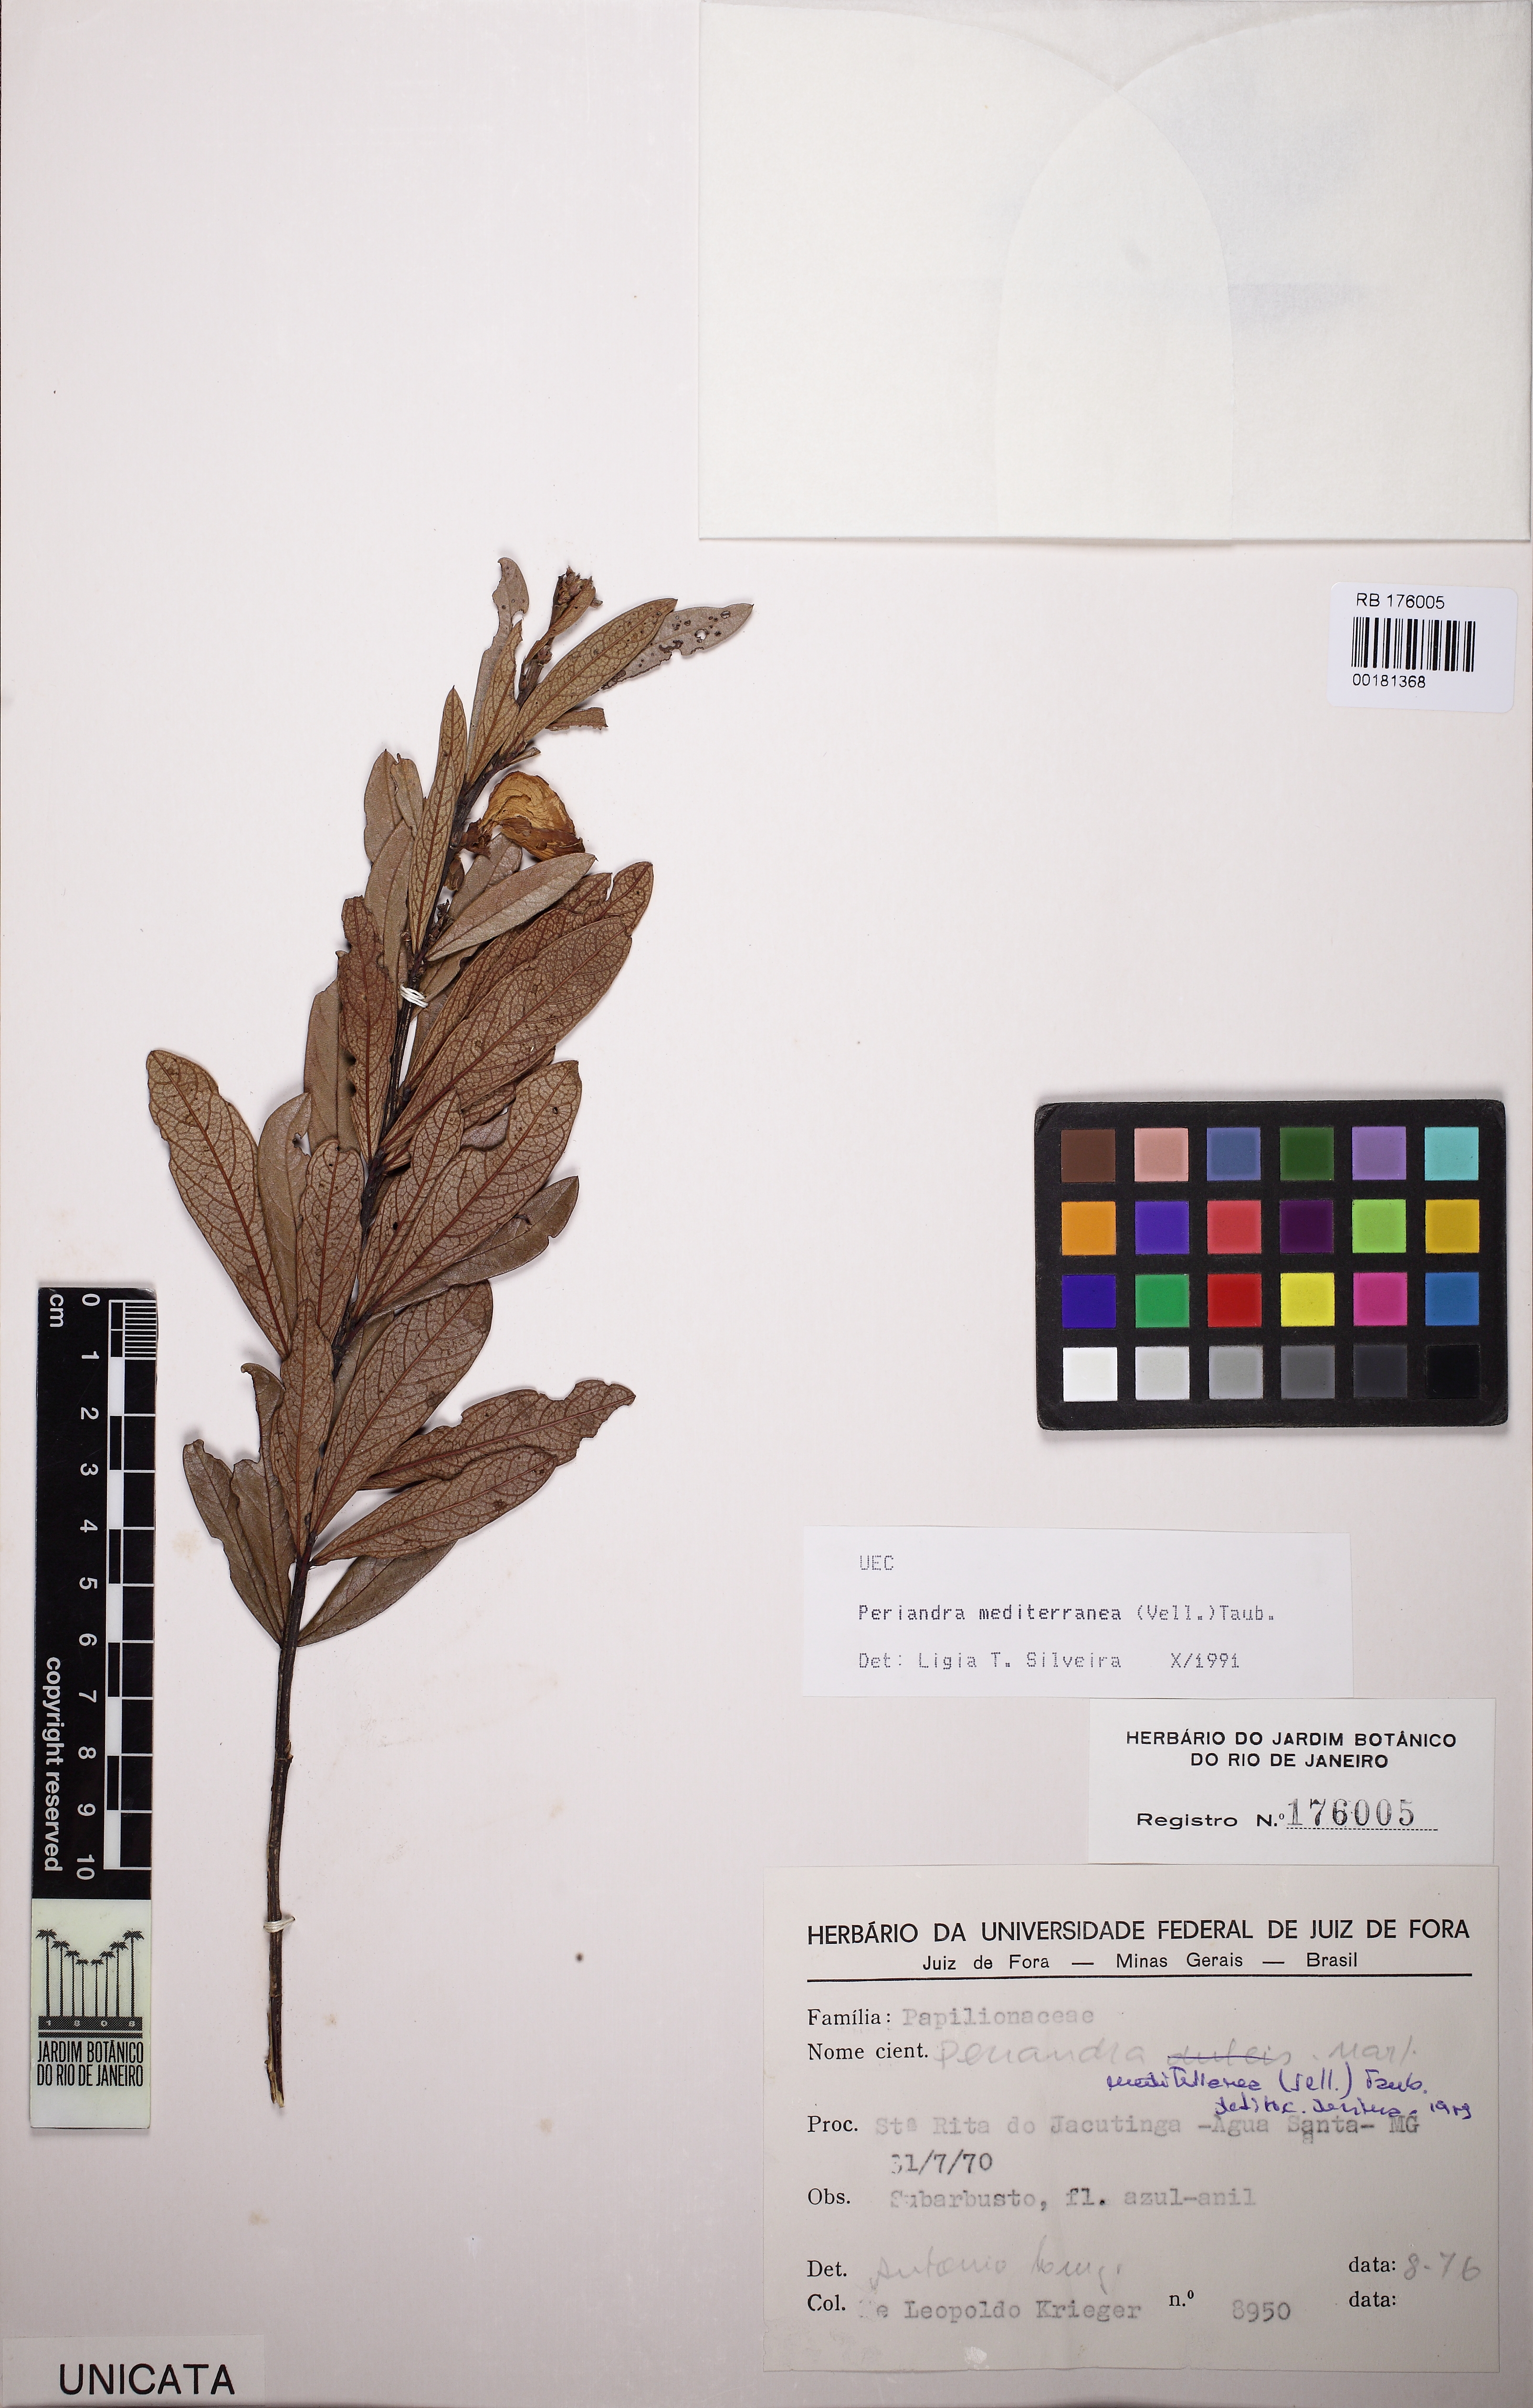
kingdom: Plantae
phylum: Tracheophyta
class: Magnoliopsida
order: Fabales
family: Fabaceae
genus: Periandra
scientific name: Periandra mediterranea
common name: Brazilian licorice
